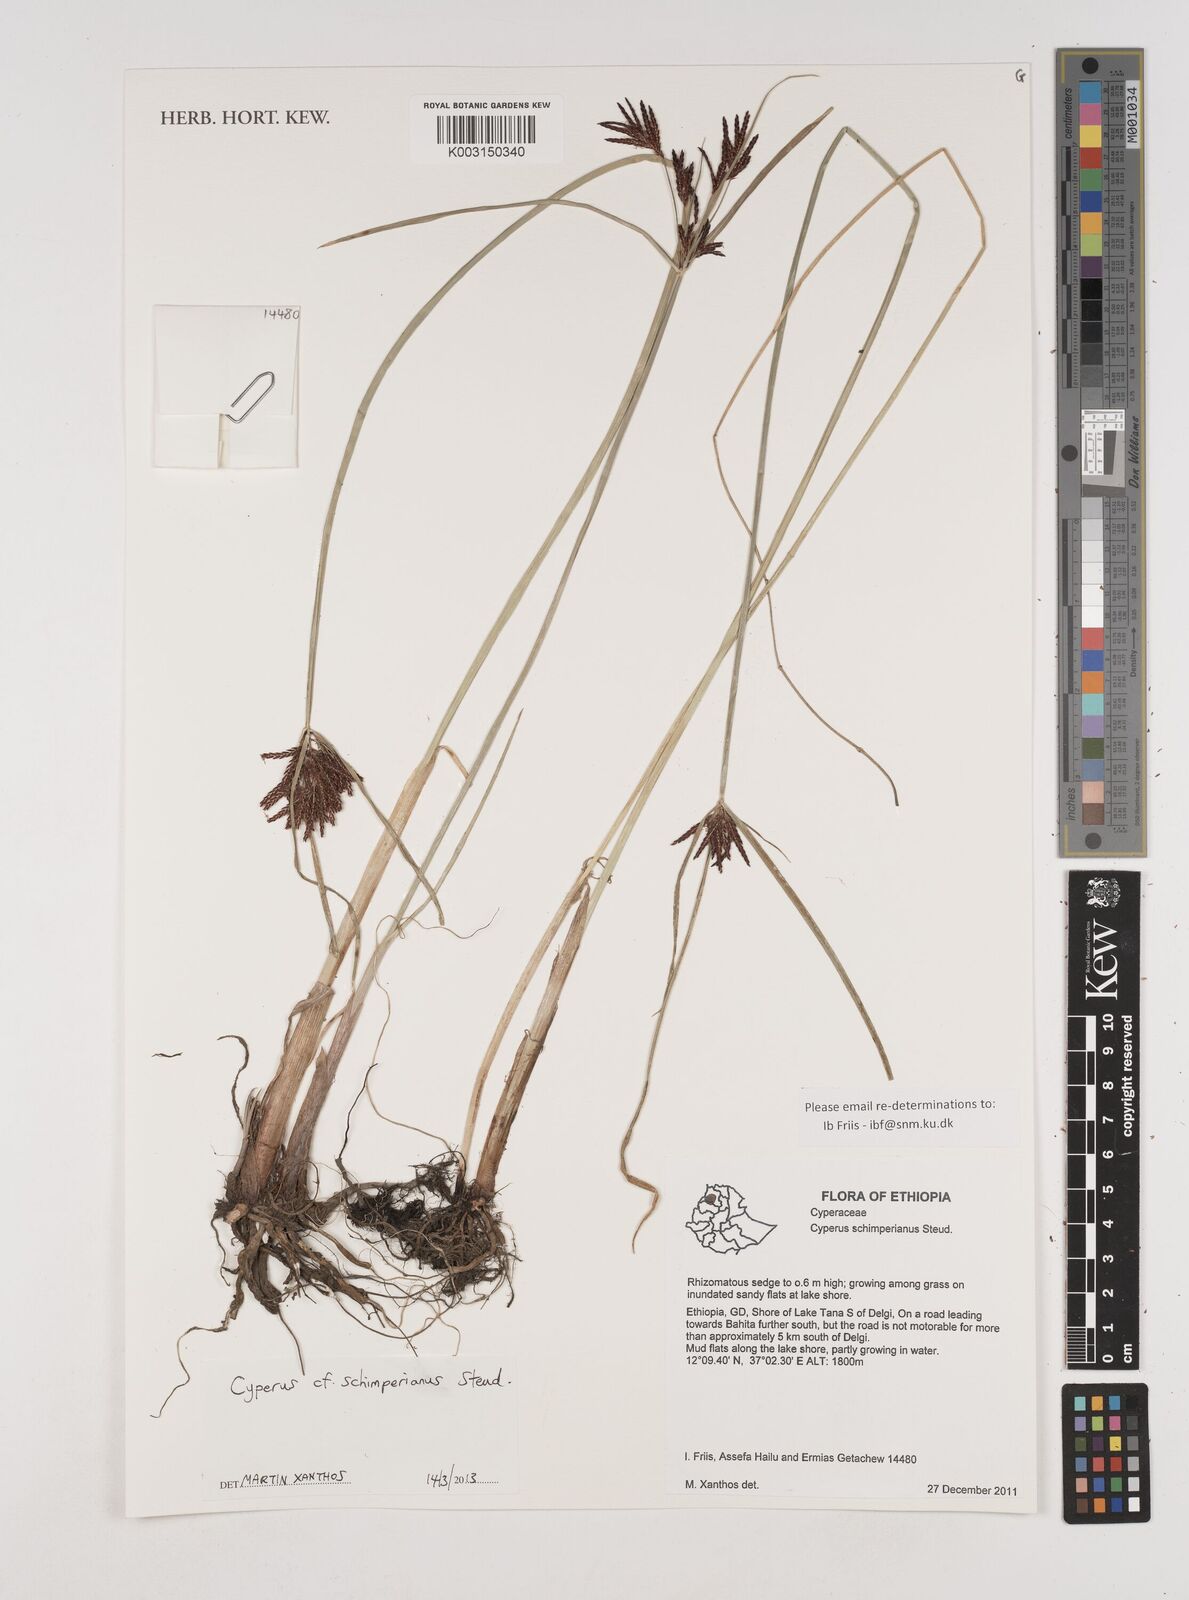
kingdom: Plantae
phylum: Tracheophyta
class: Liliopsida
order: Poales
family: Cyperaceae
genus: Cyperus
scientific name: Cyperus schimperianus
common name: Schimper flatsedge
